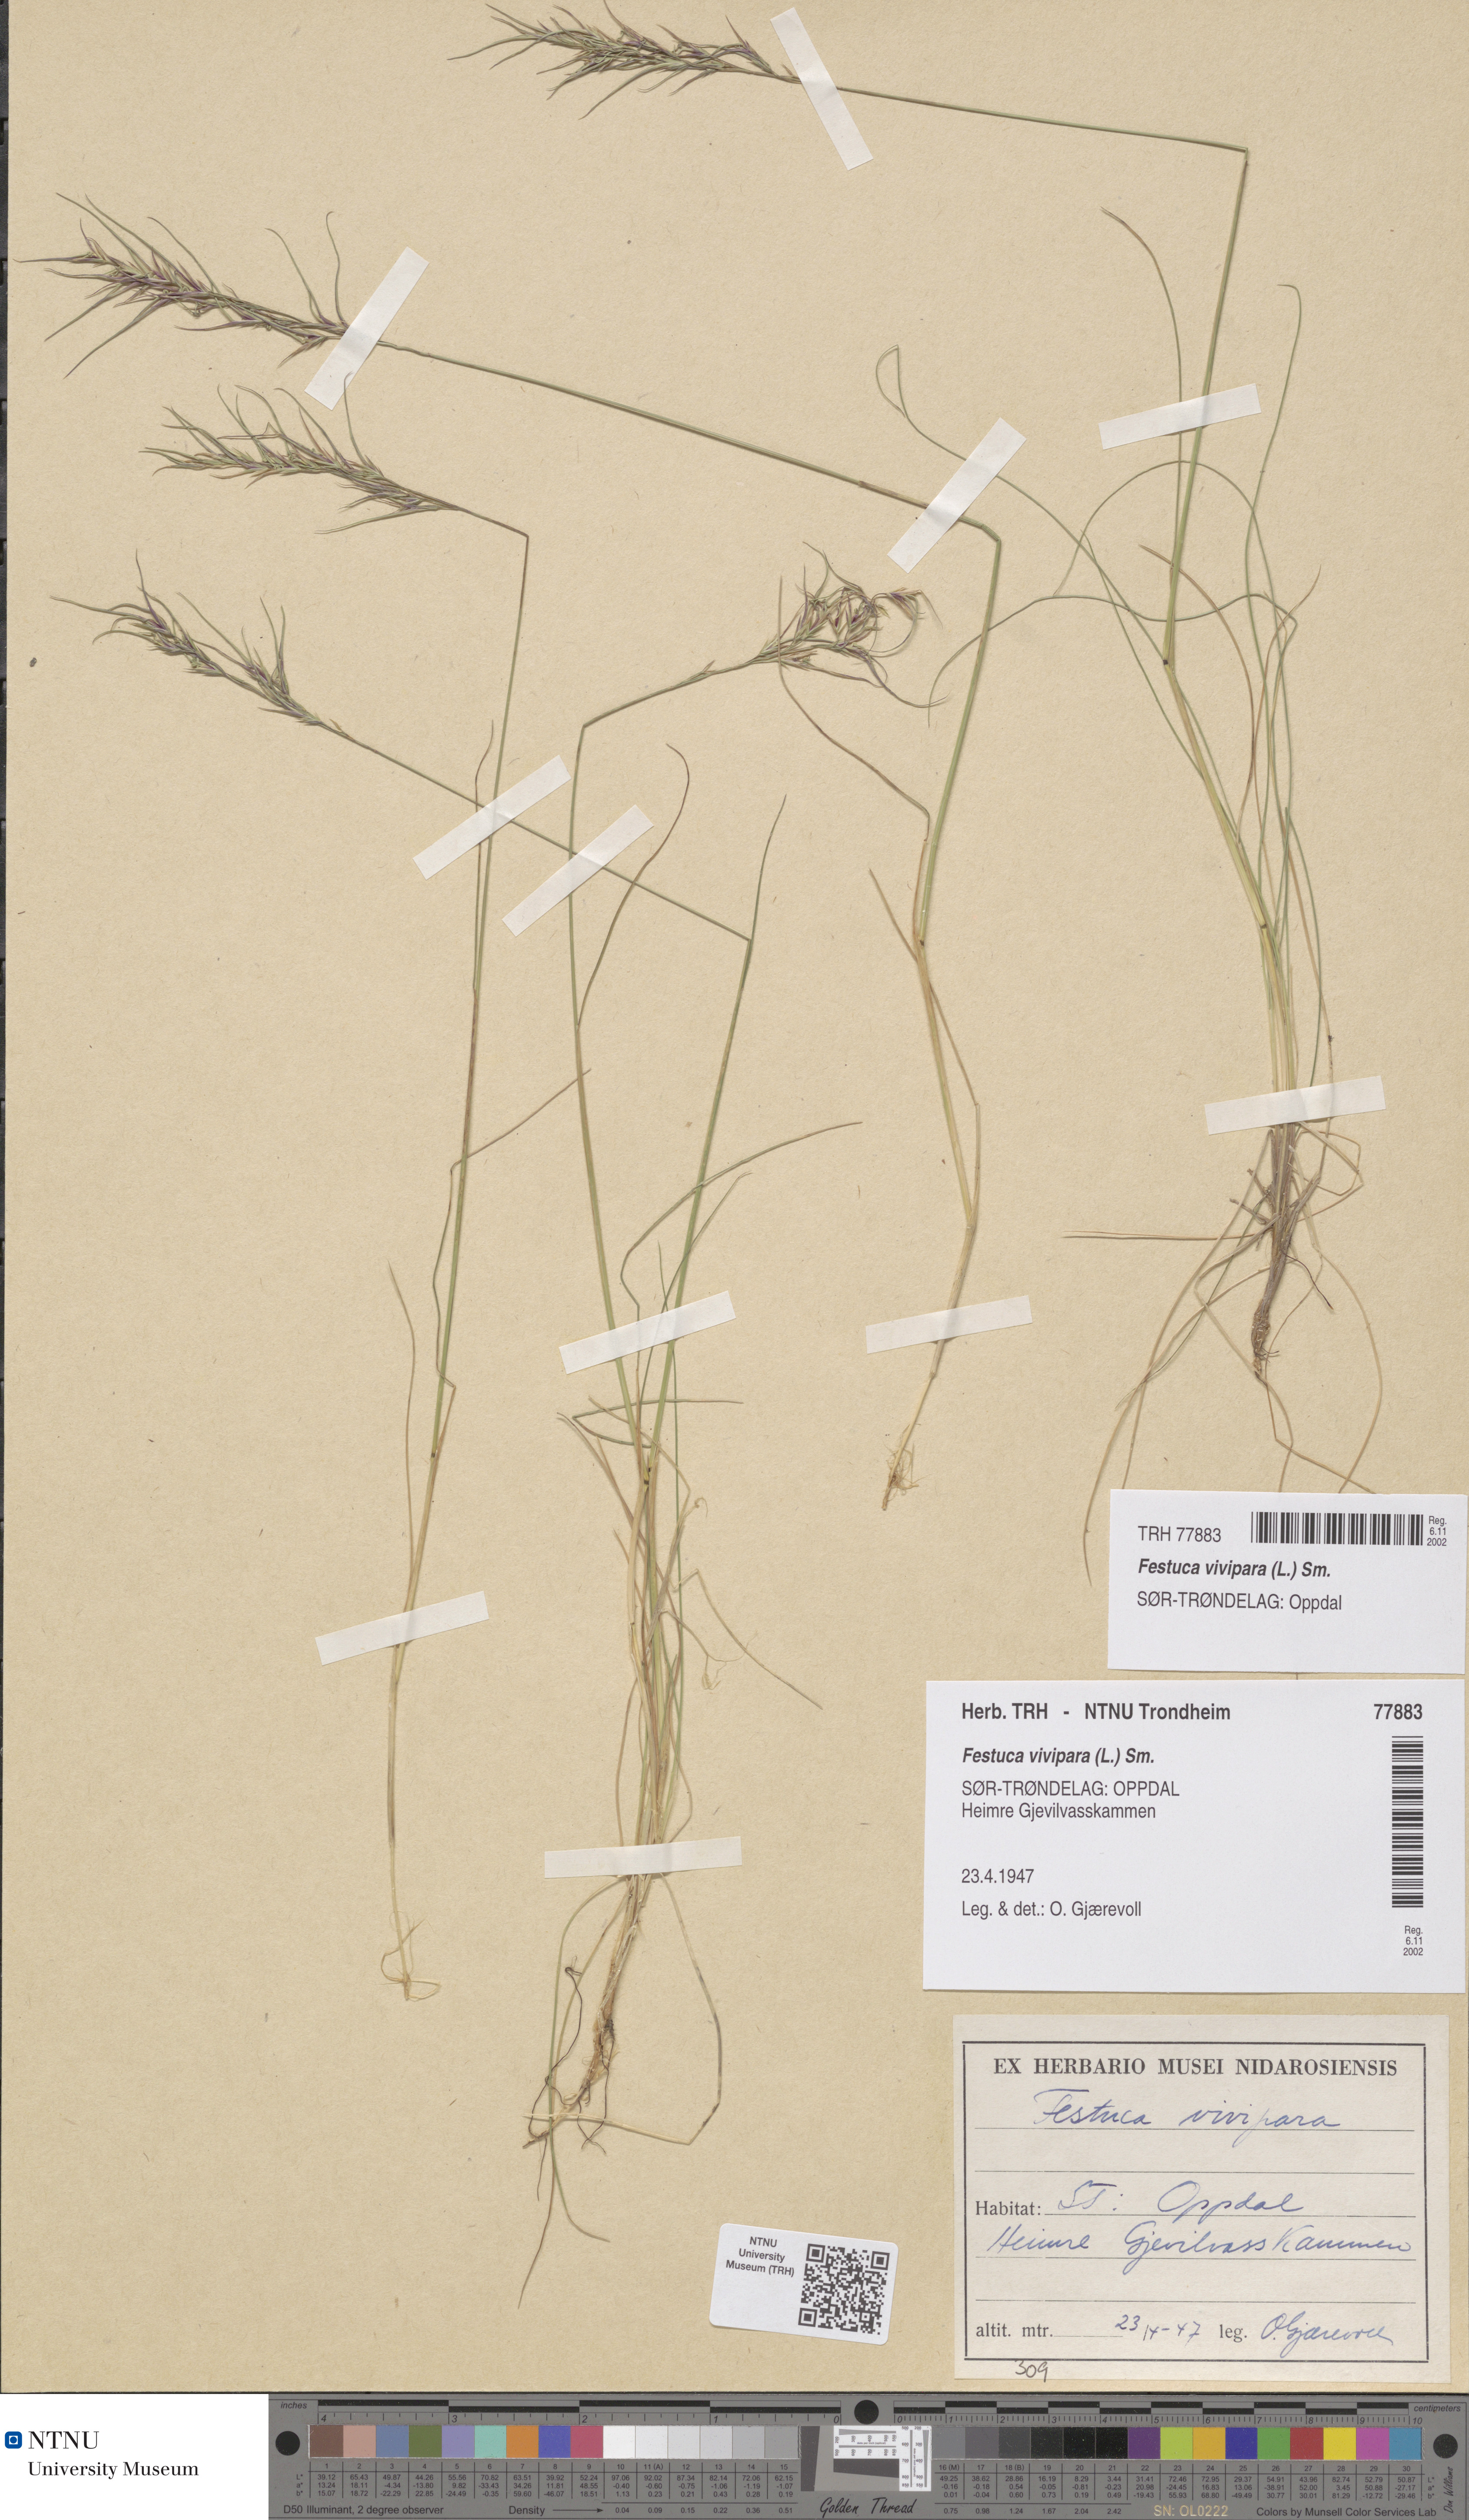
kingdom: Plantae
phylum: Tracheophyta
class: Liliopsida
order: Poales
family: Poaceae
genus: Festuca
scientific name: Festuca vivipara
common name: Viviparous sheep's-fescue
